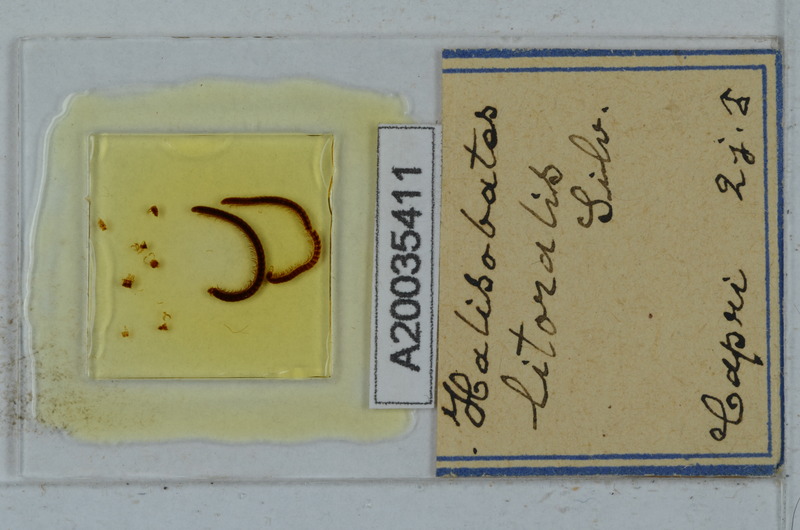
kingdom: Animalia
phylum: Arthropoda
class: Diplopoda
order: Julida
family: Nemasomatidae
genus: Thalassisobates
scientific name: Thalassisobates littoralis
